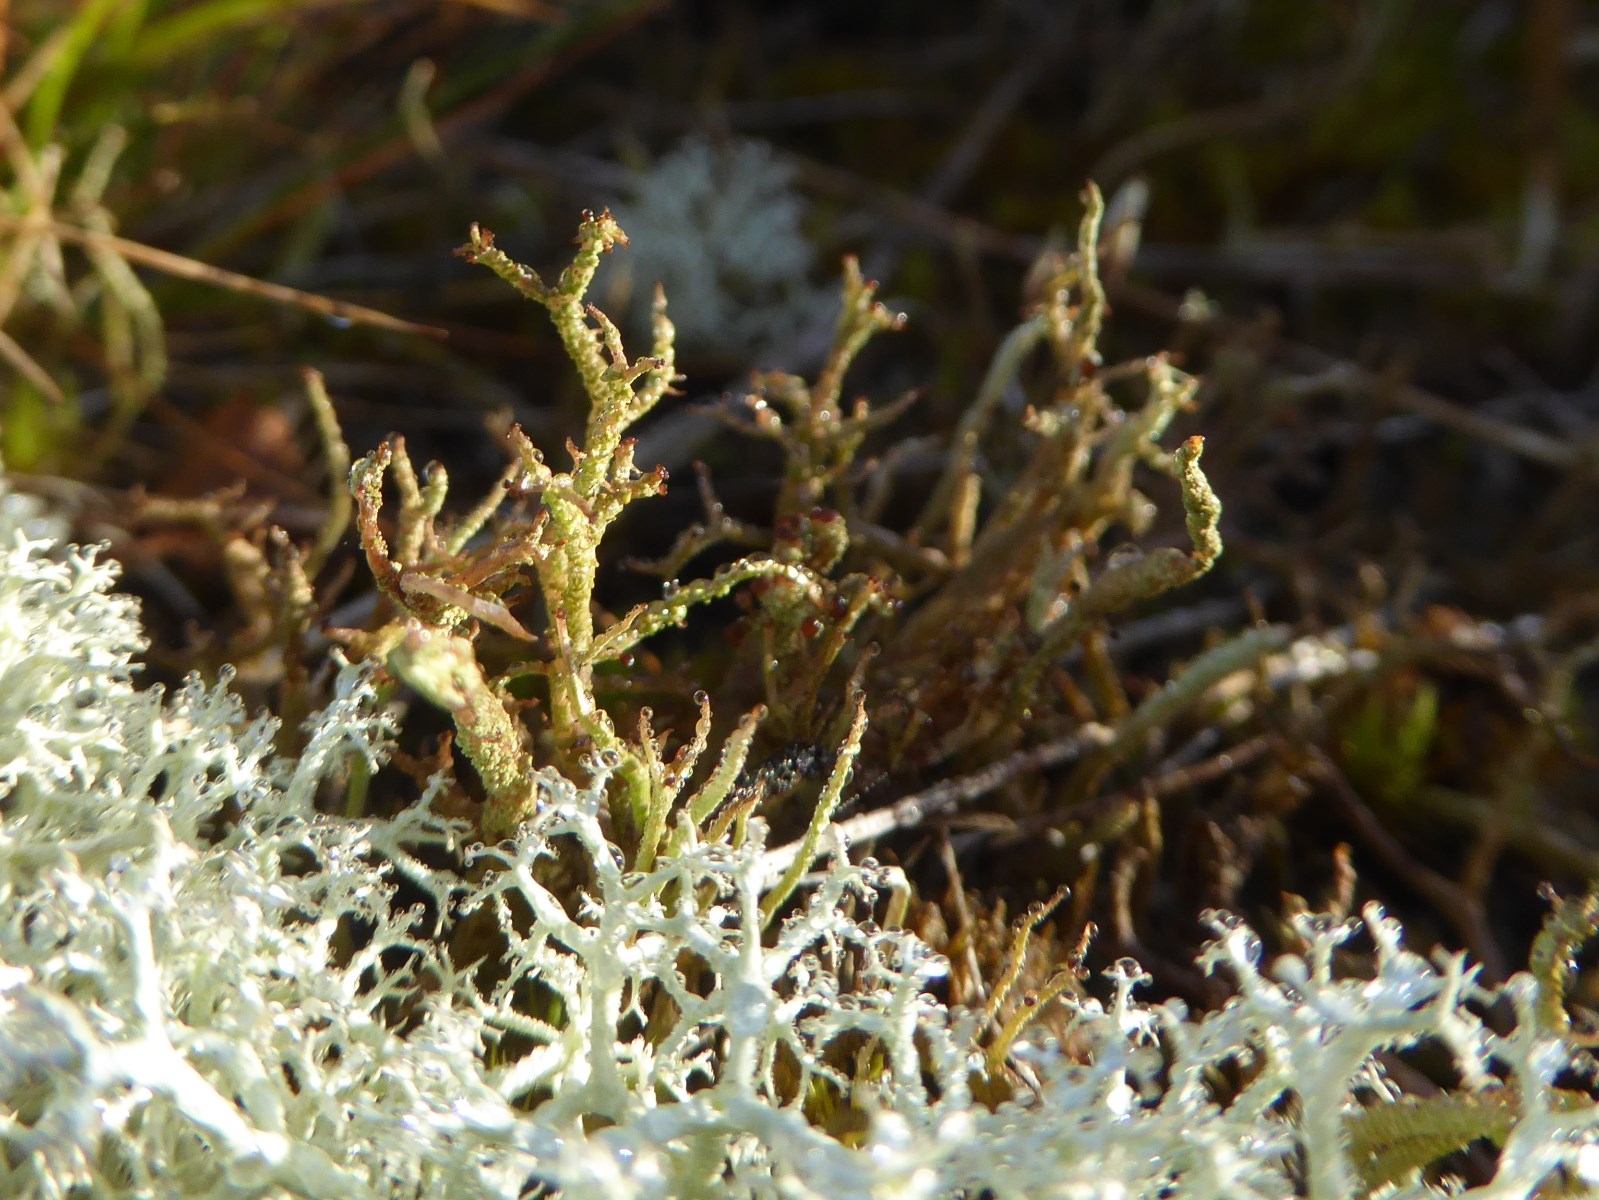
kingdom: Fungi
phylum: Ascomycota
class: Lecanoromycetes
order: Lecanorales
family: Cladoniaceae
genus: Cladonia
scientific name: Cladonia scabriuscula
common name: ru bægerlav
